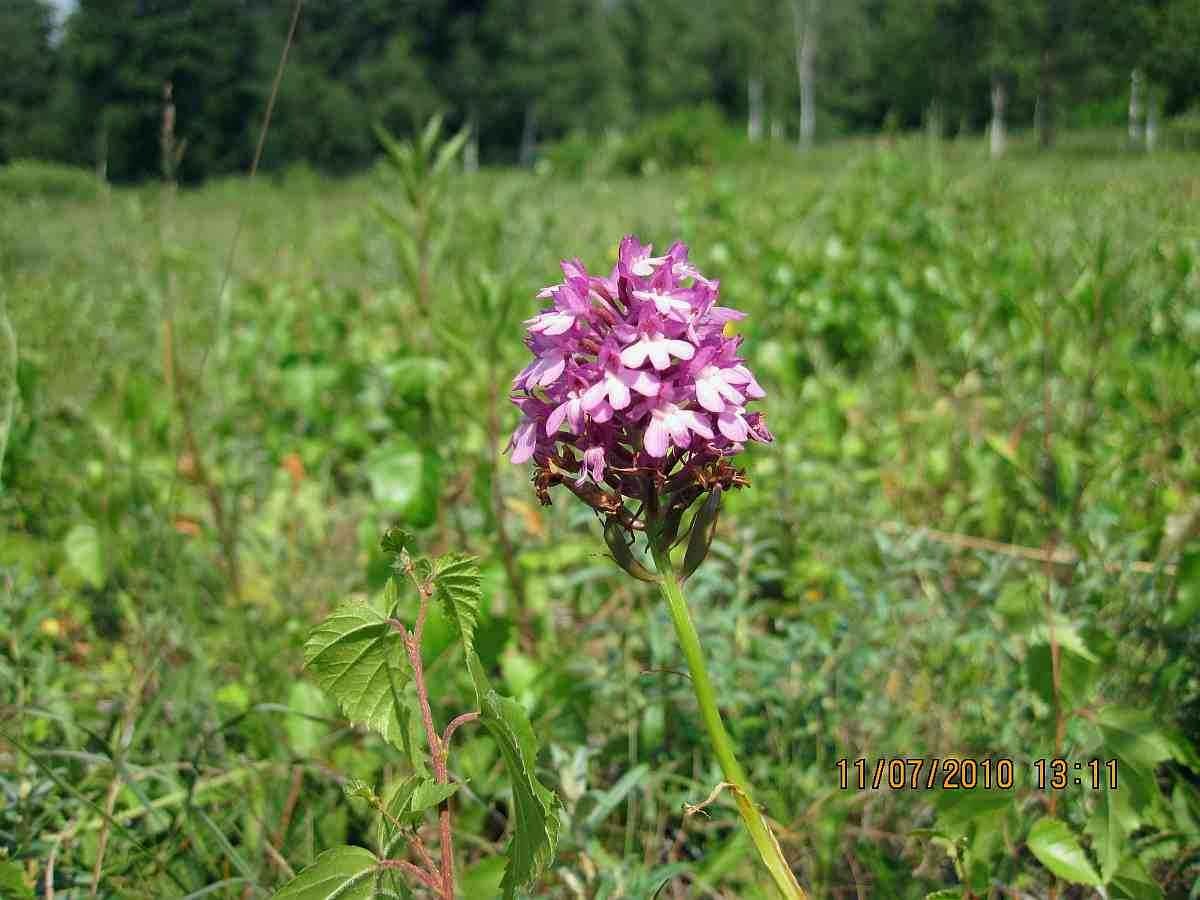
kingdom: Plantae
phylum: Tracheophyta
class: Liliopsida
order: Asparagales
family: Orchidaceae
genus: Anacamptis
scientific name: Anacamptis pyramidalis
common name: Horndrager
